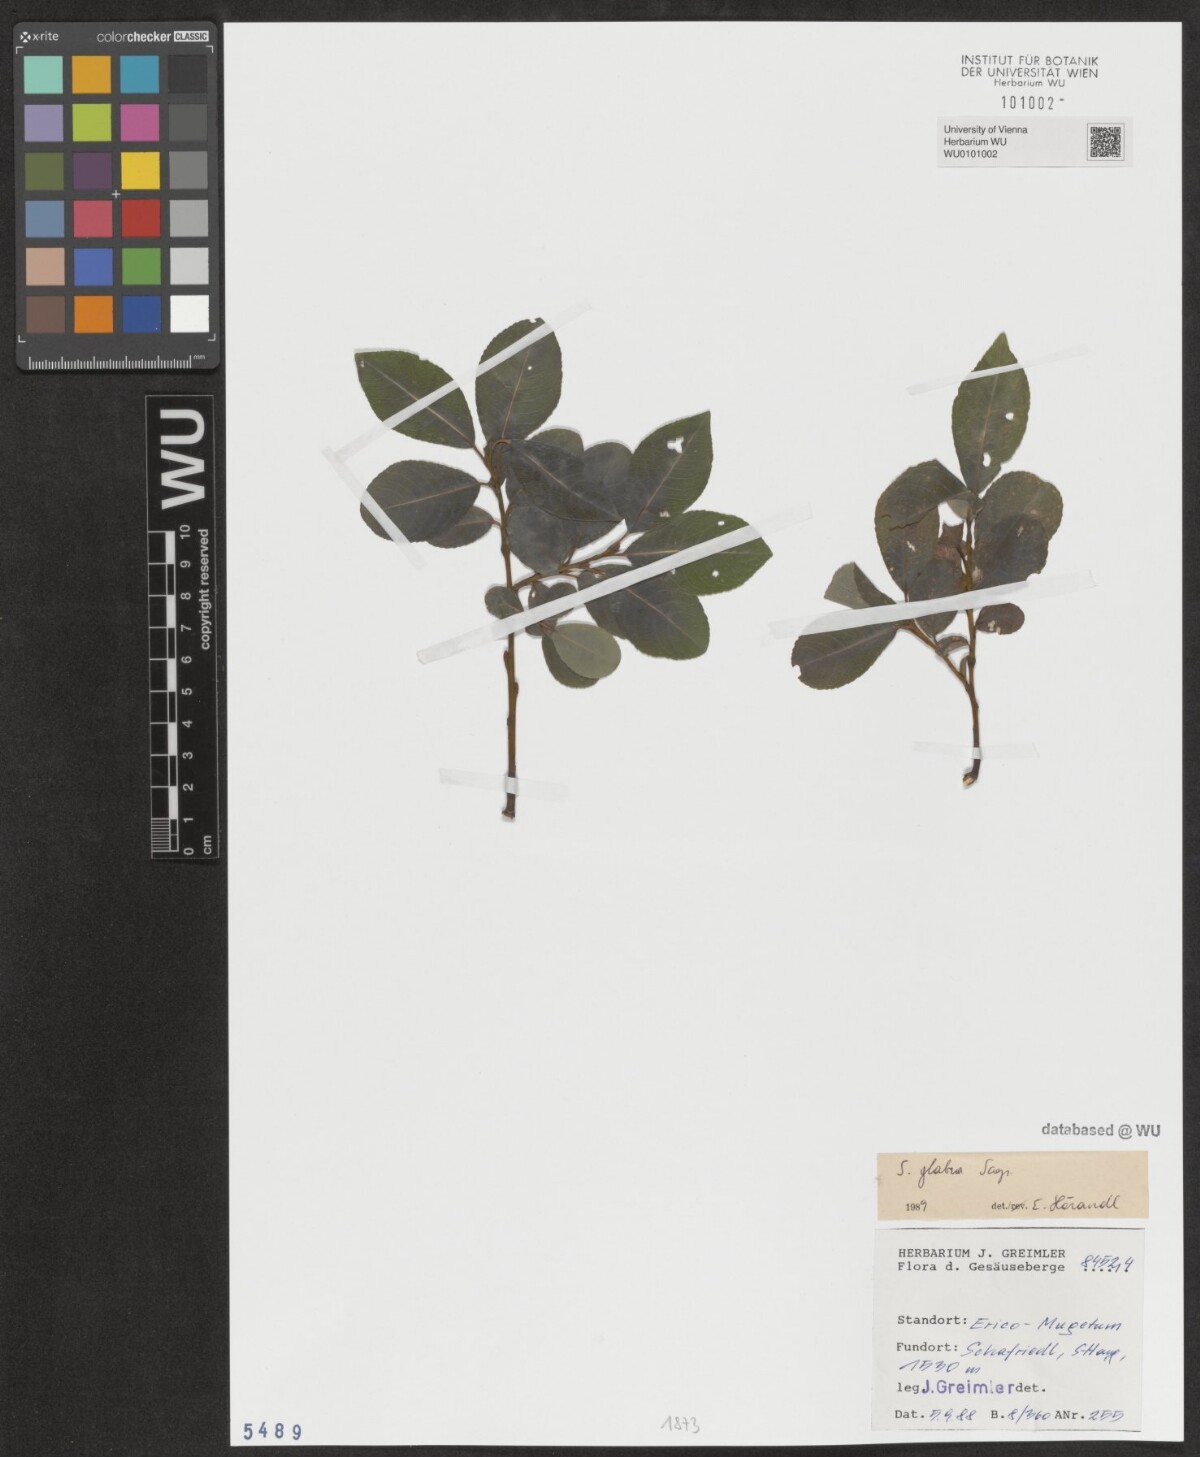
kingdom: Plantae
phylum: Tracheophyta
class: Magnoliopsida
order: Malpighiales
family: Salicaceae
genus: Salix
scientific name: Salix glabra
